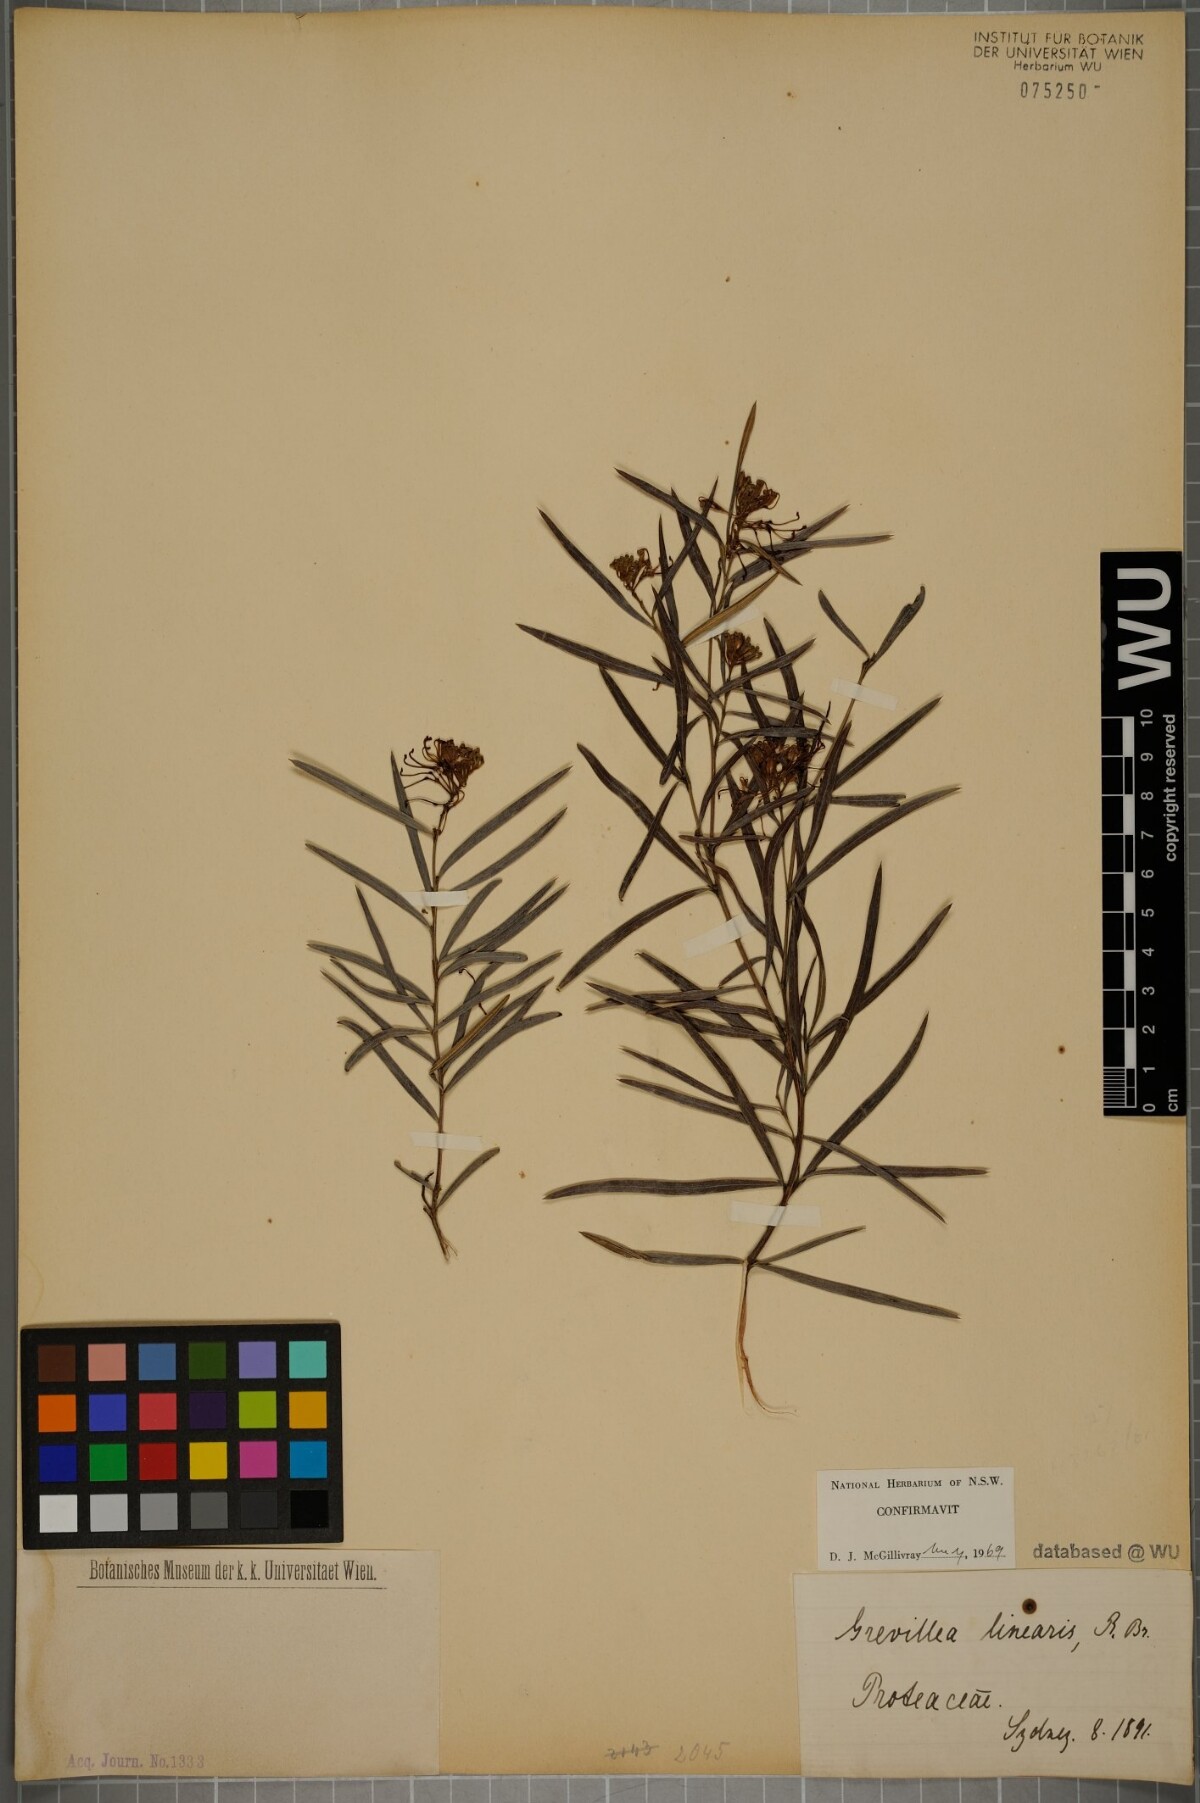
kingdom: Plantae
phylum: Tracheophyta
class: Magnoliopsida
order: Proteales
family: Proteaceae
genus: Grevillea
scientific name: Grevillea linearifolia
